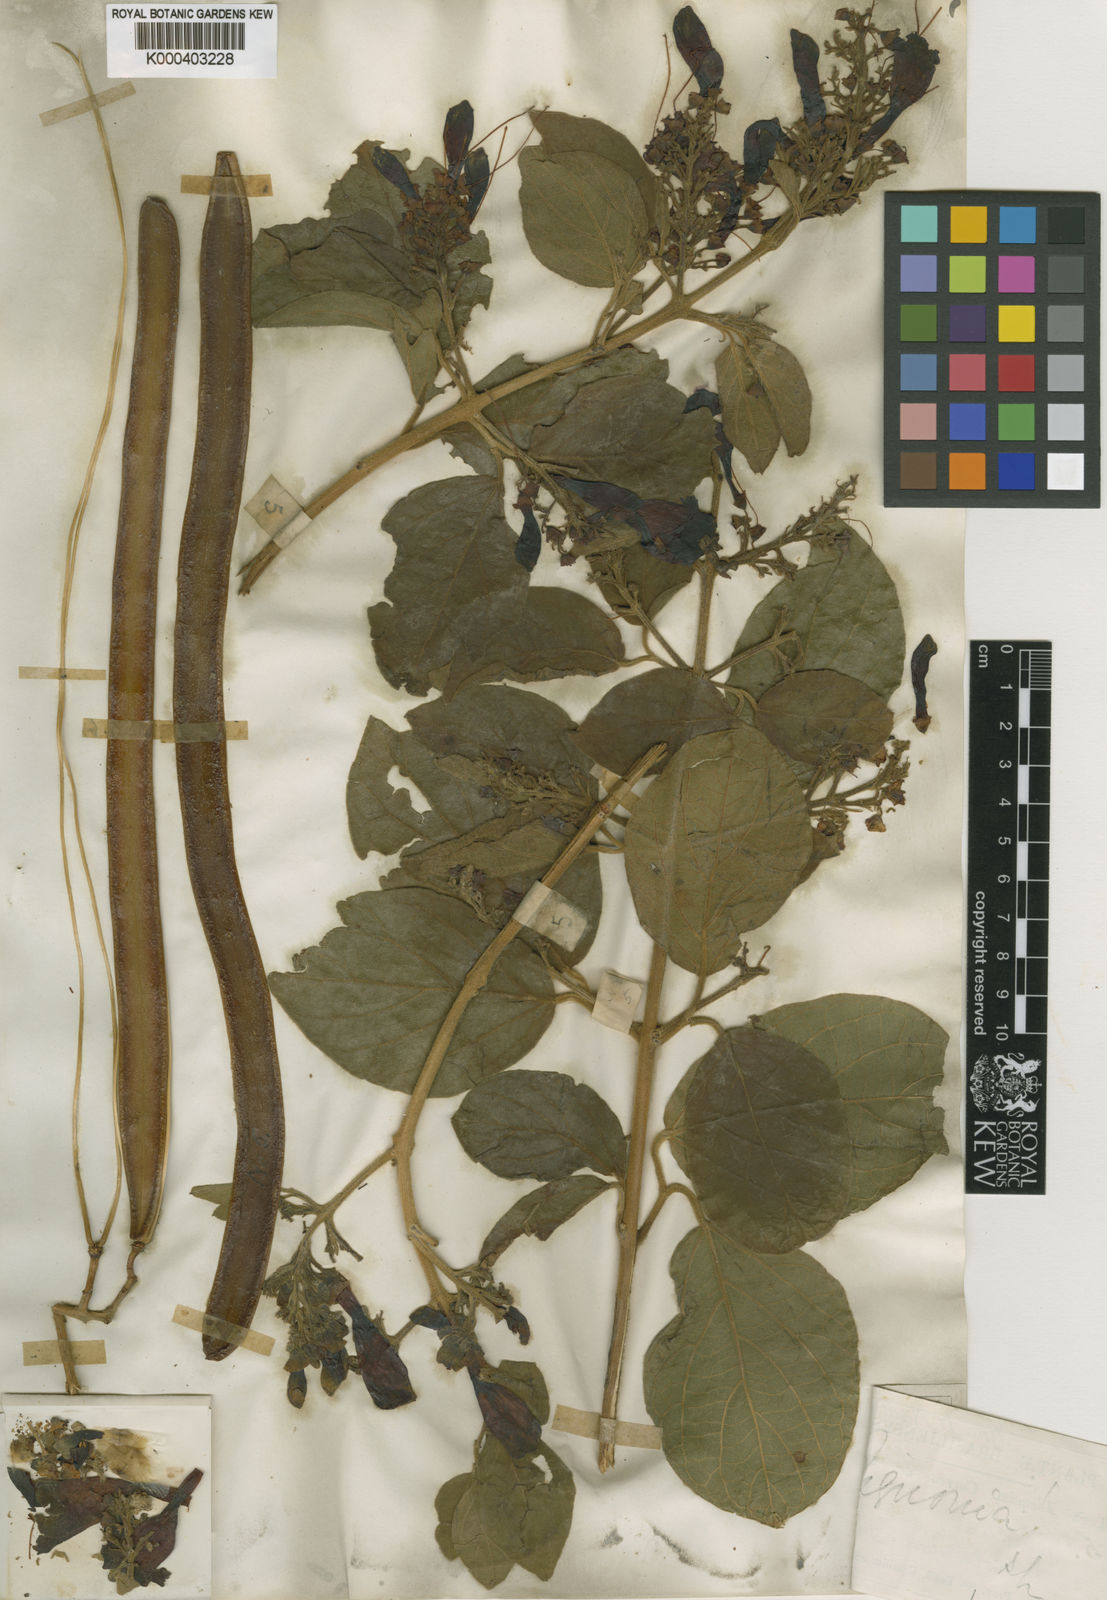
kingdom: Plantae
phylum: Tracheophyta
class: Magnoliopsida
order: Lamiales
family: Bignoniaceae
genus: Fridericia
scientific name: Fridericia formosa
